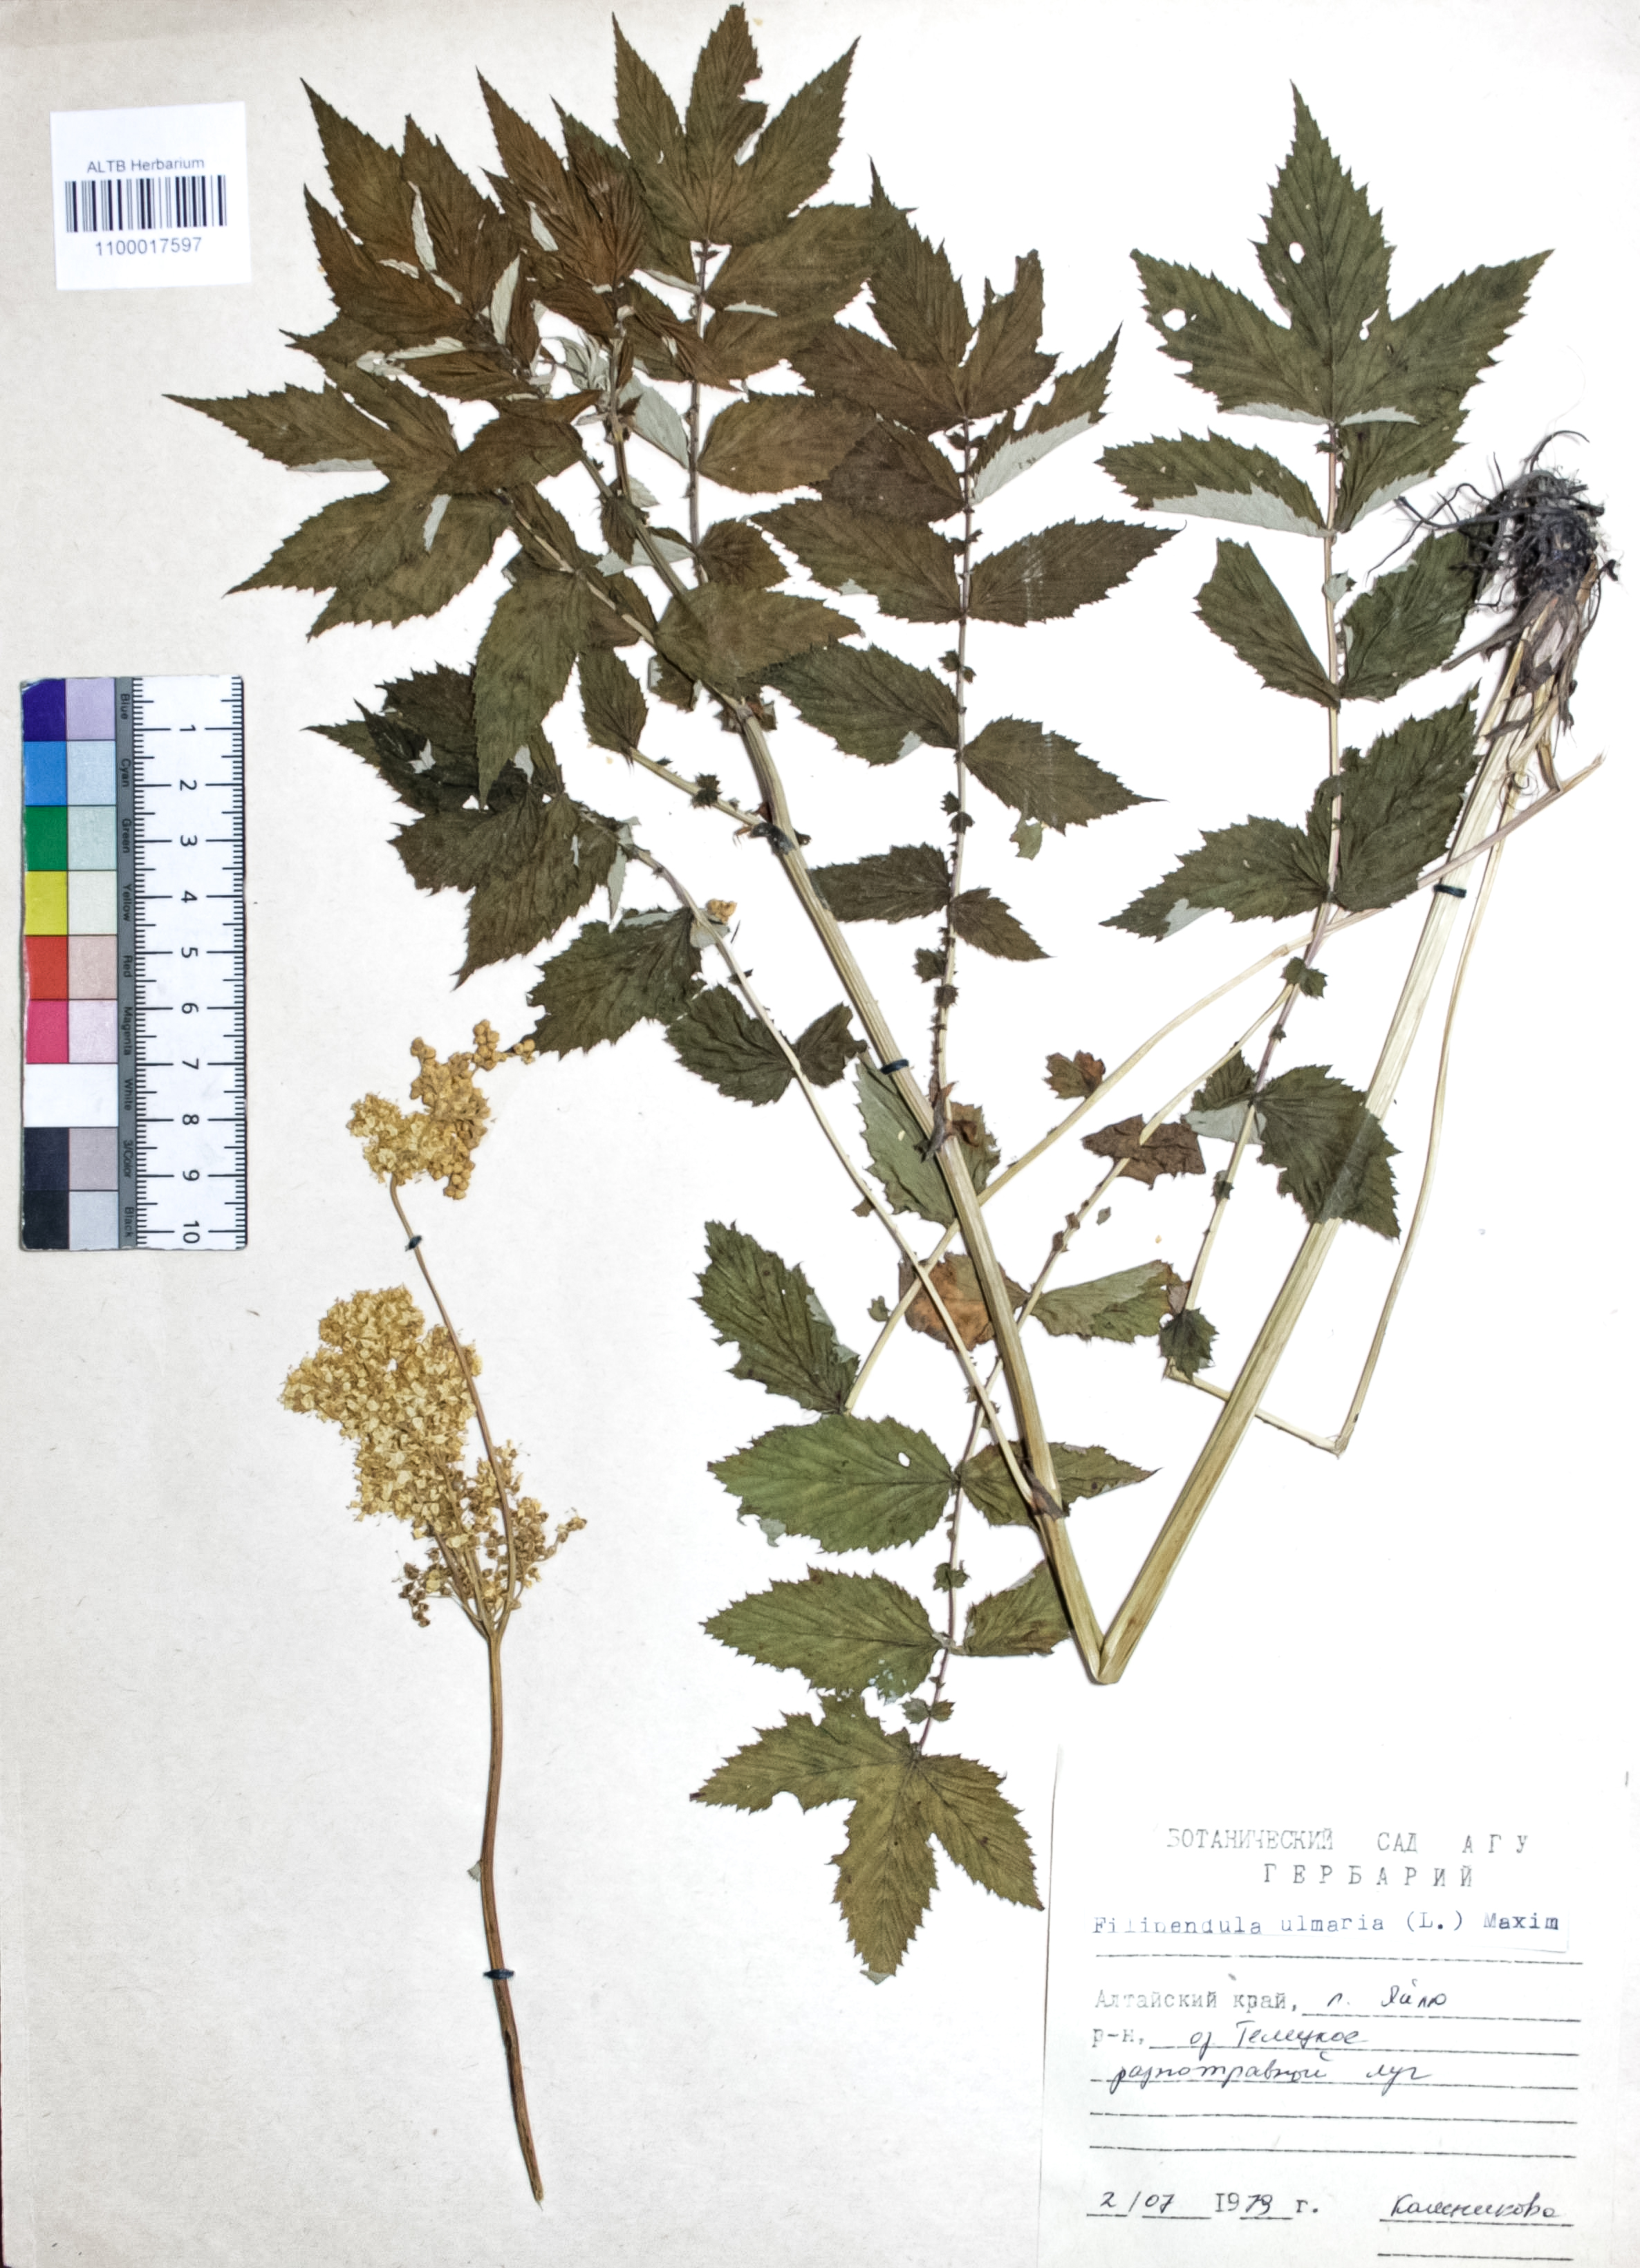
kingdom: Plantae
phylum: Tracheophyta
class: Magnoliopsida
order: Rosales
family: Rosaceae
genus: Filipendula
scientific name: Filipendula ulmaria
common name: Meadowsweet
